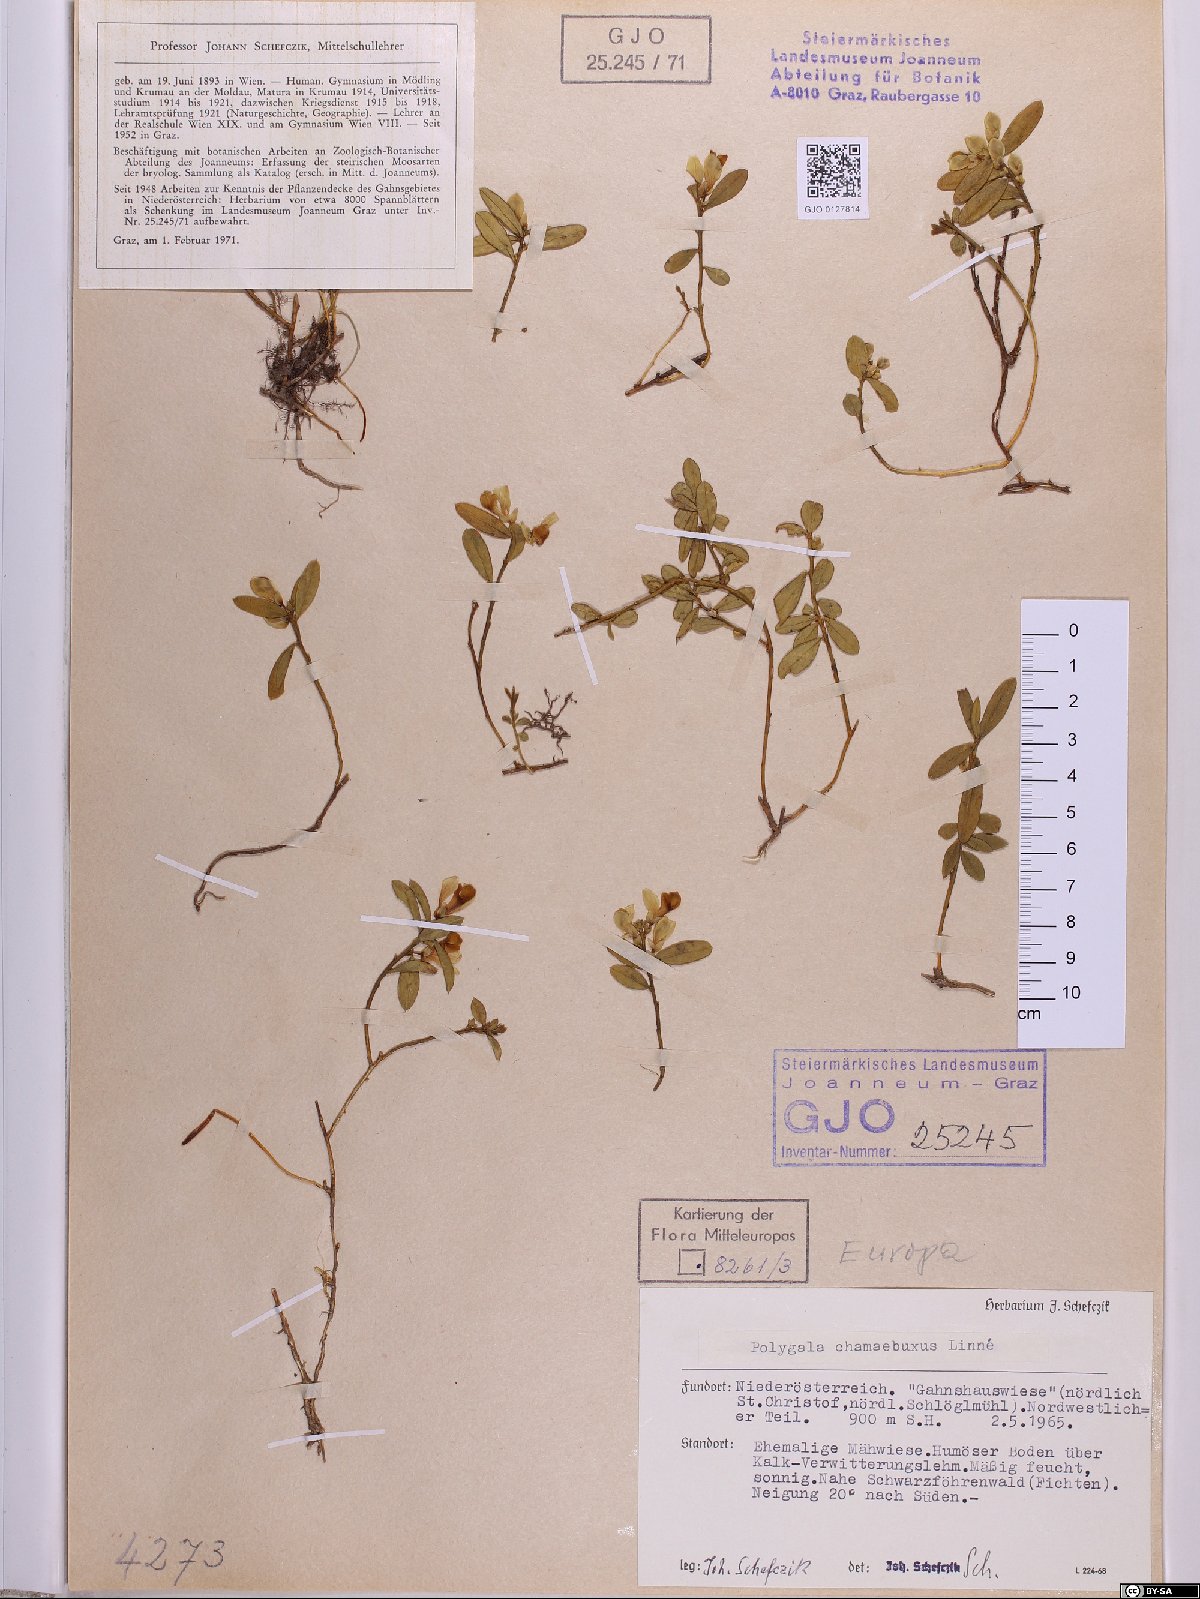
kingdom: Plantae
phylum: Tracheophyta
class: Magnoliopsida
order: Fabales
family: Polygalaceae
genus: Polygaloides
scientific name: Polygaloides chamaebuxus
